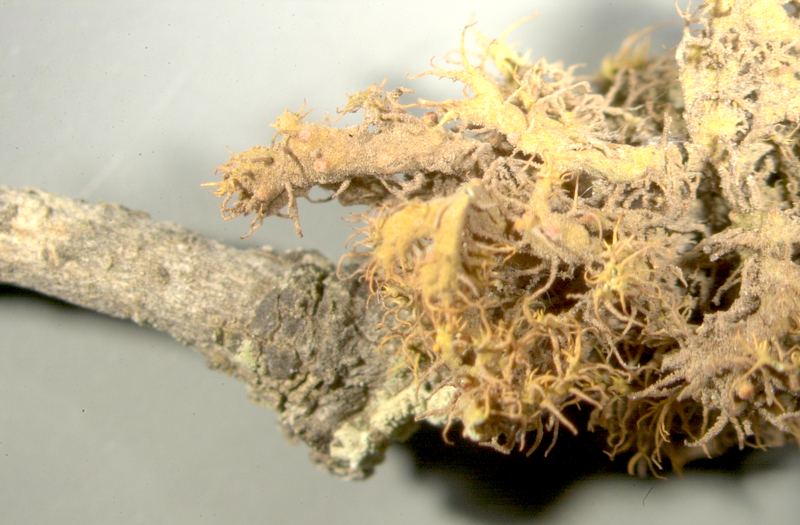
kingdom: Fungi
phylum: Ascomycota
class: Candelariomycetes
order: Candelariales
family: Candelariaceae
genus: Candelaria
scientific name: Candelaria
